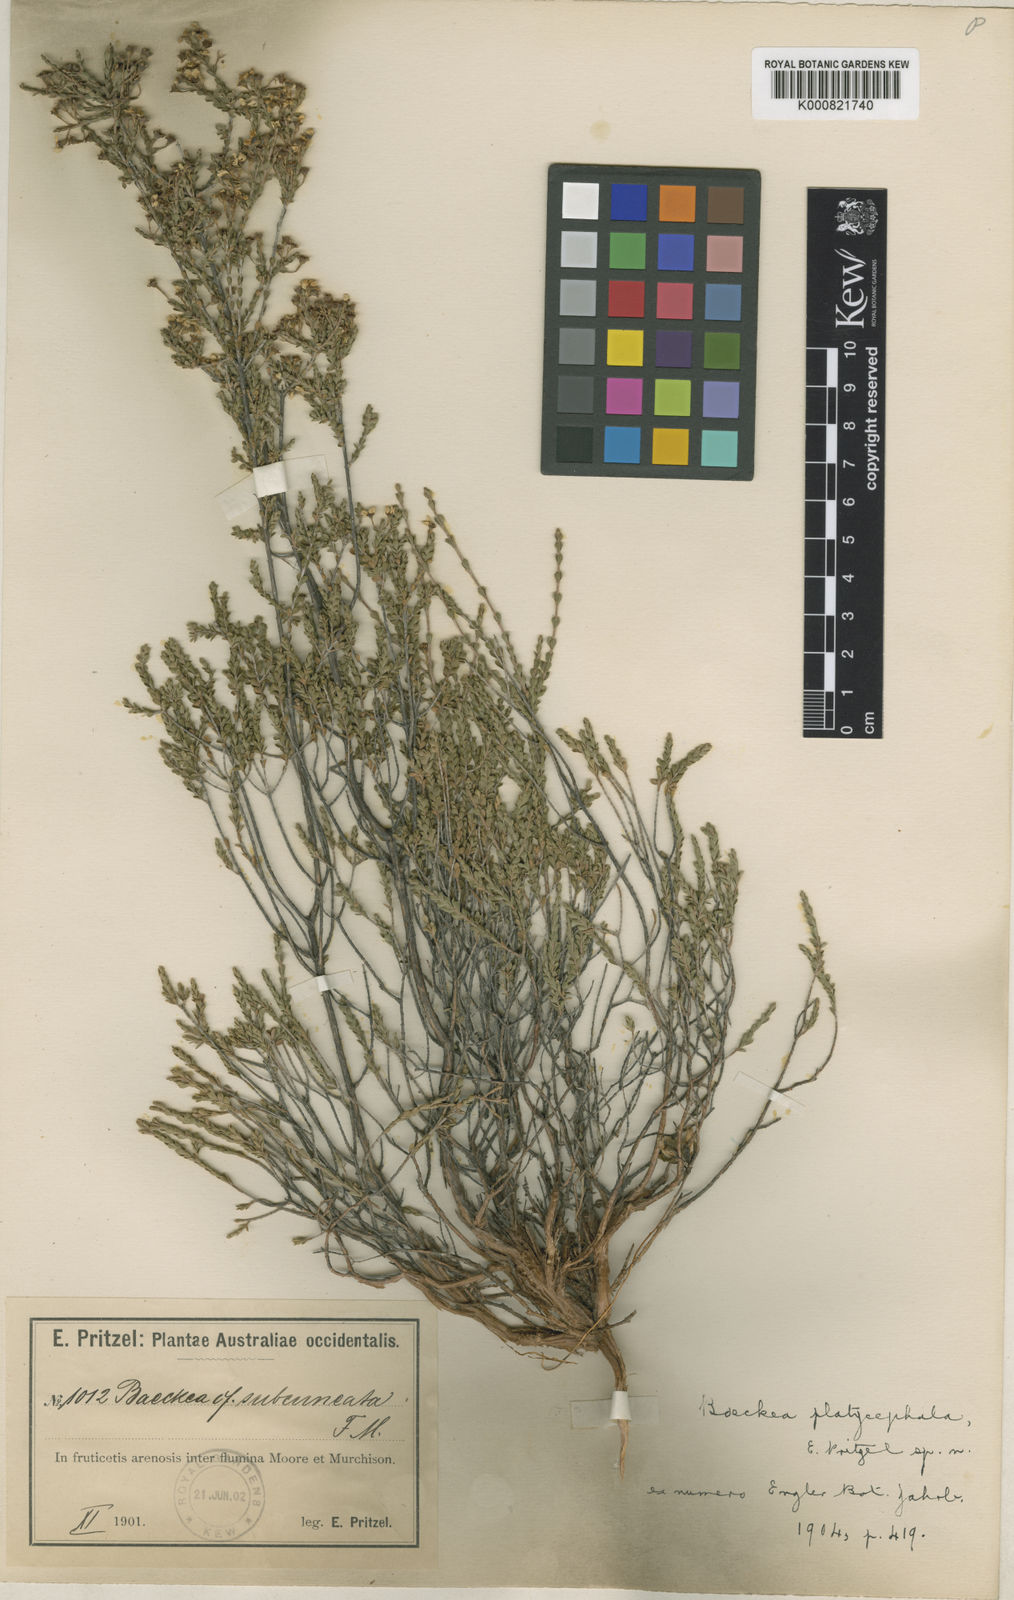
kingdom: Plantae
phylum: Tracheophyta
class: Magnoliopsida
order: Myrtales
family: Myrtaceae
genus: Ericomyrtus
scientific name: Ericomyrtus serpyllifolia
